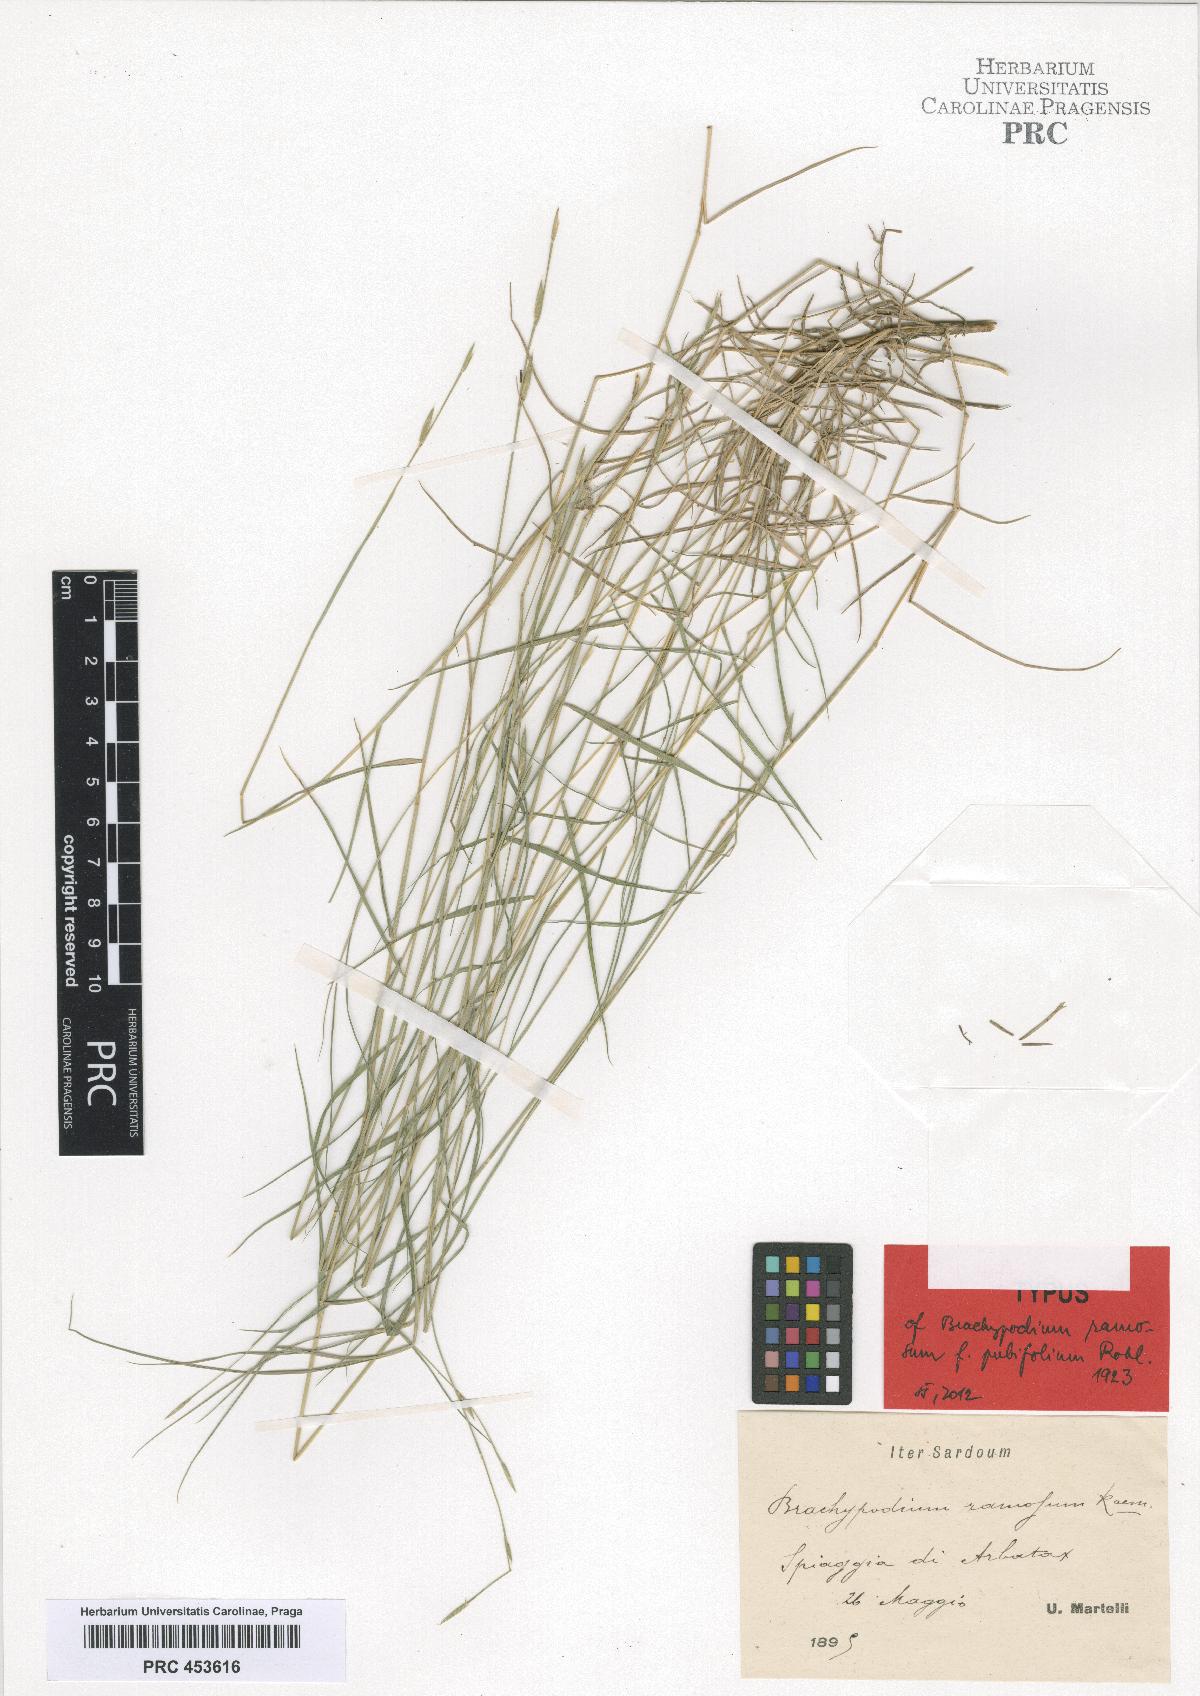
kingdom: Plantae
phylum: Tracheophyta
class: Liliopsida
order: Poales
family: Poaceae
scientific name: Poaceae
